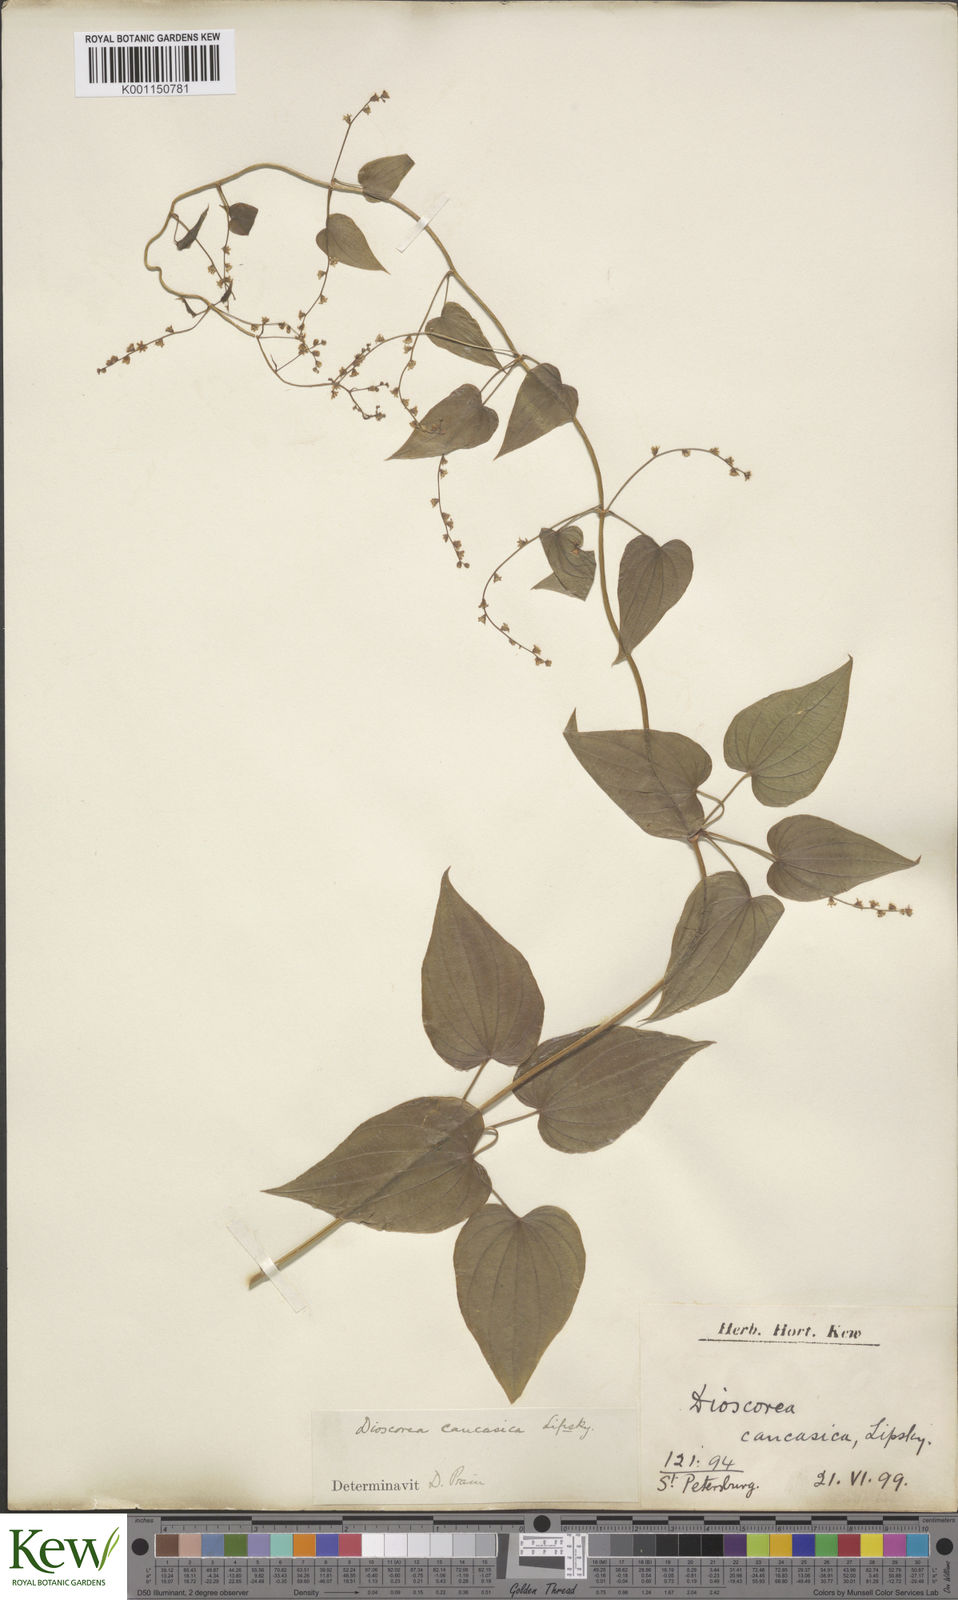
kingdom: Plantae
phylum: Tracheophyta
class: Liliopsida
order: Dioscoreales
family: Dioscoreaceae
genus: Dioscorea
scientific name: Dioscorea caucasica
